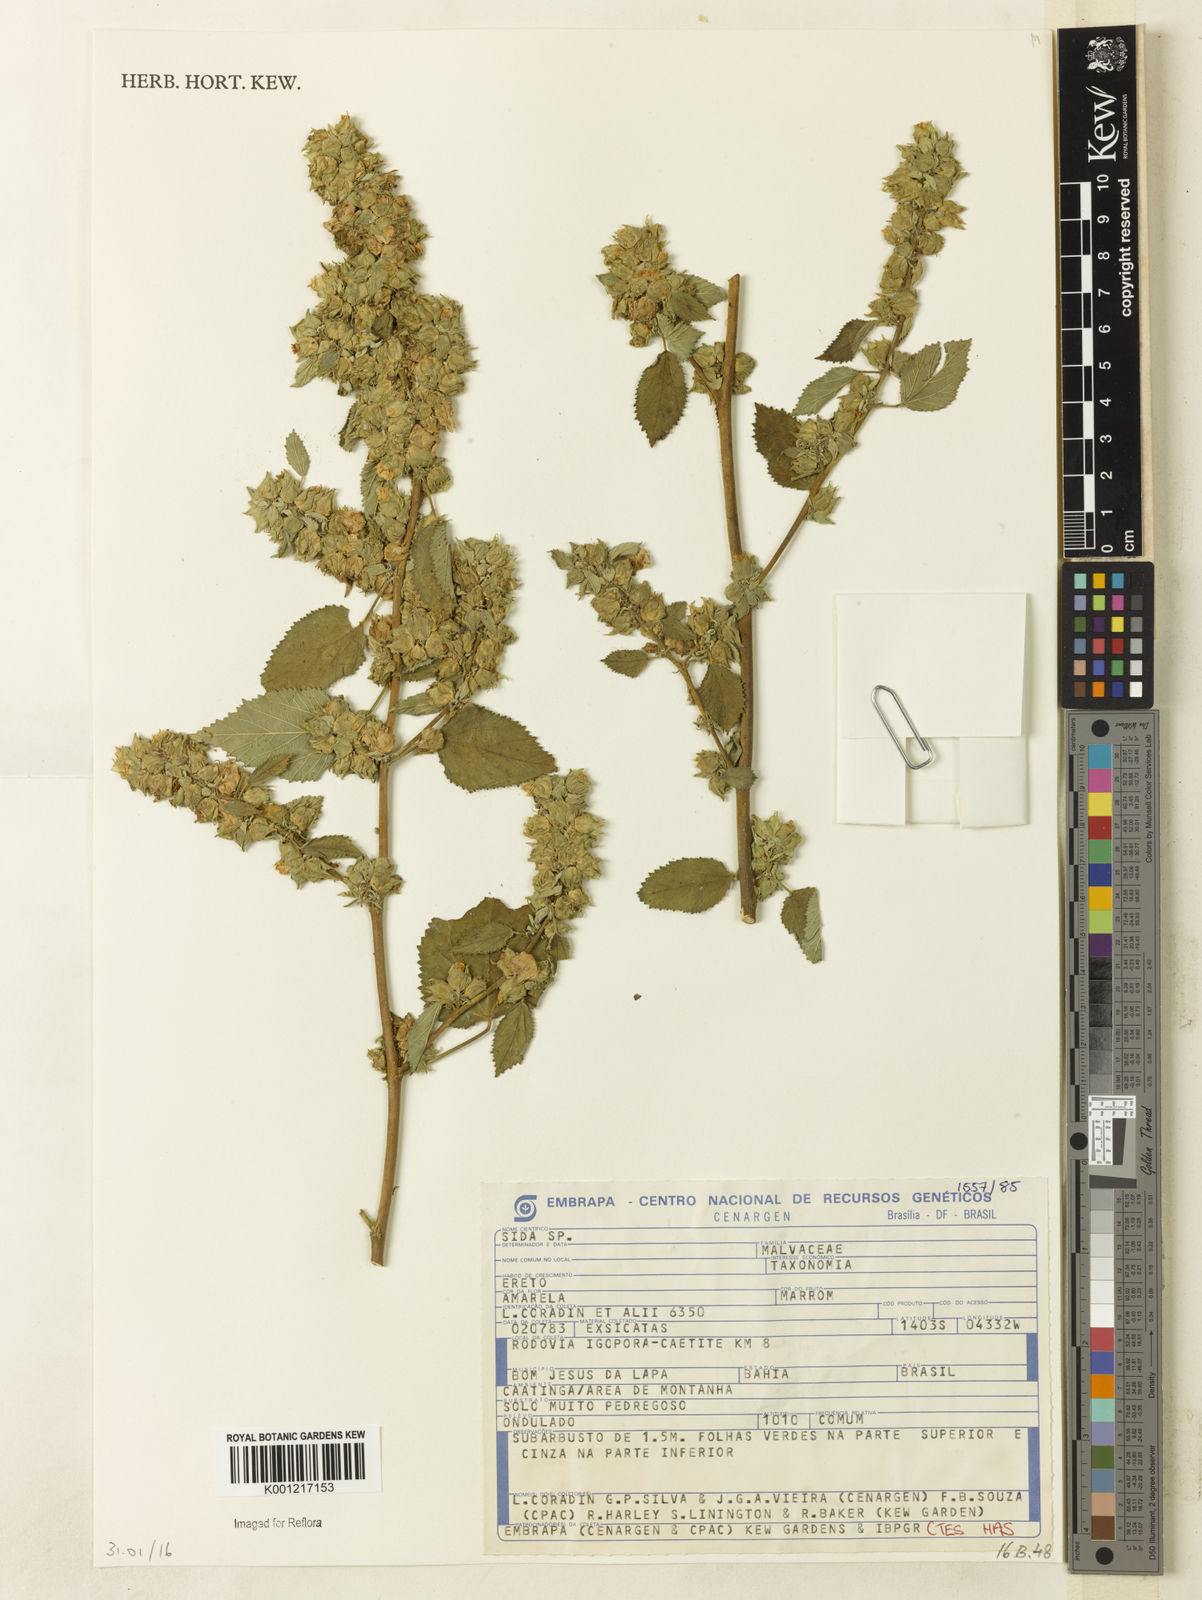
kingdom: Plantae
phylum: Tracheophyta
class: Magnoliopsida
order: Malvales
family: Malvaceae
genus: Sida
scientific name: Sida
